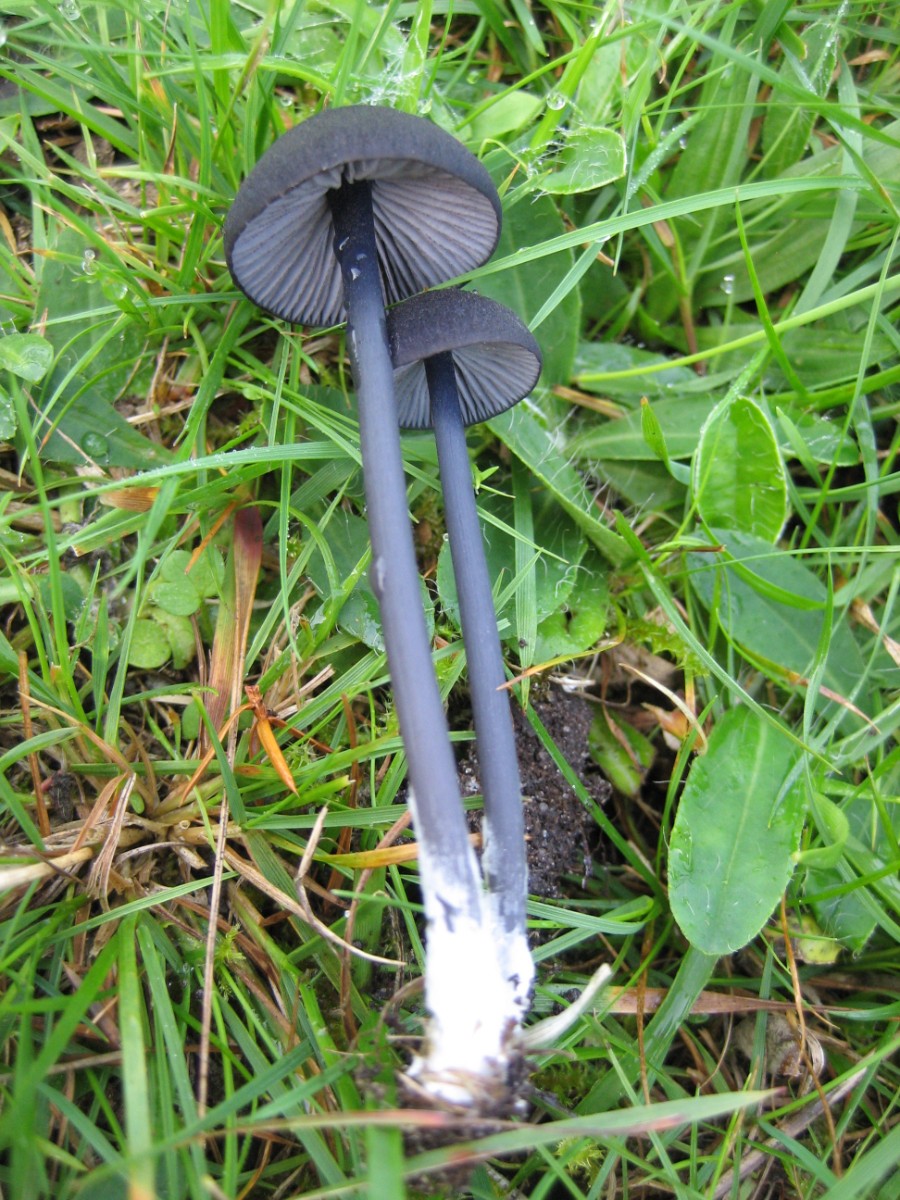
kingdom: Fungi
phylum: Basidiomycota
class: Agaricomycetes
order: Agaricales
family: Entolomataceae
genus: Entoloma
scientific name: Entoloma chalybeum
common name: blåbladet rødblad
